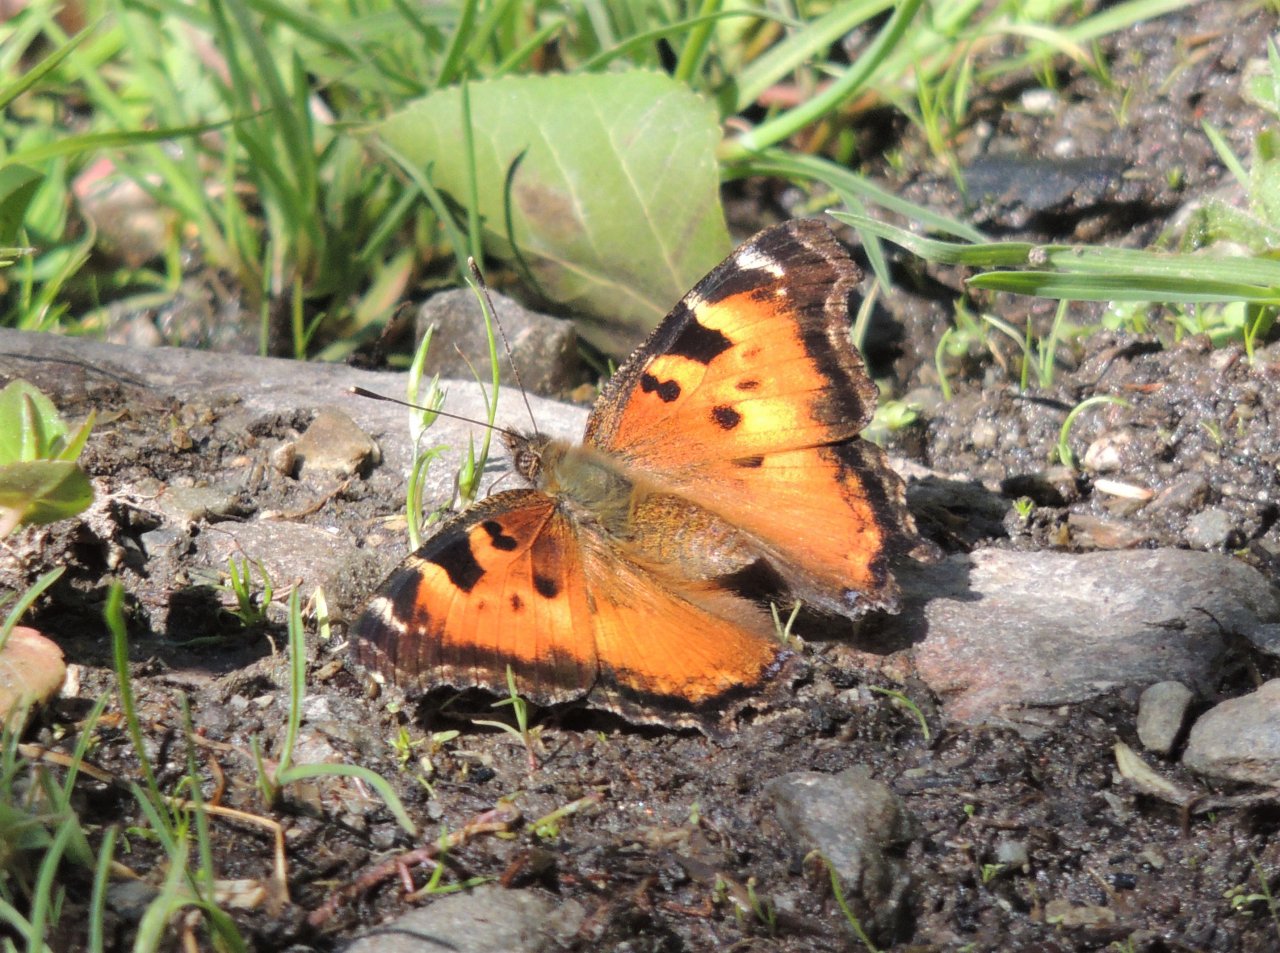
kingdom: Animalia
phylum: Arthropoda
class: Insecta
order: Lepidoptera
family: Nymphalidae
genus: Nymphalis
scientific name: Nymphalis californica
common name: California Tortoiseshell
